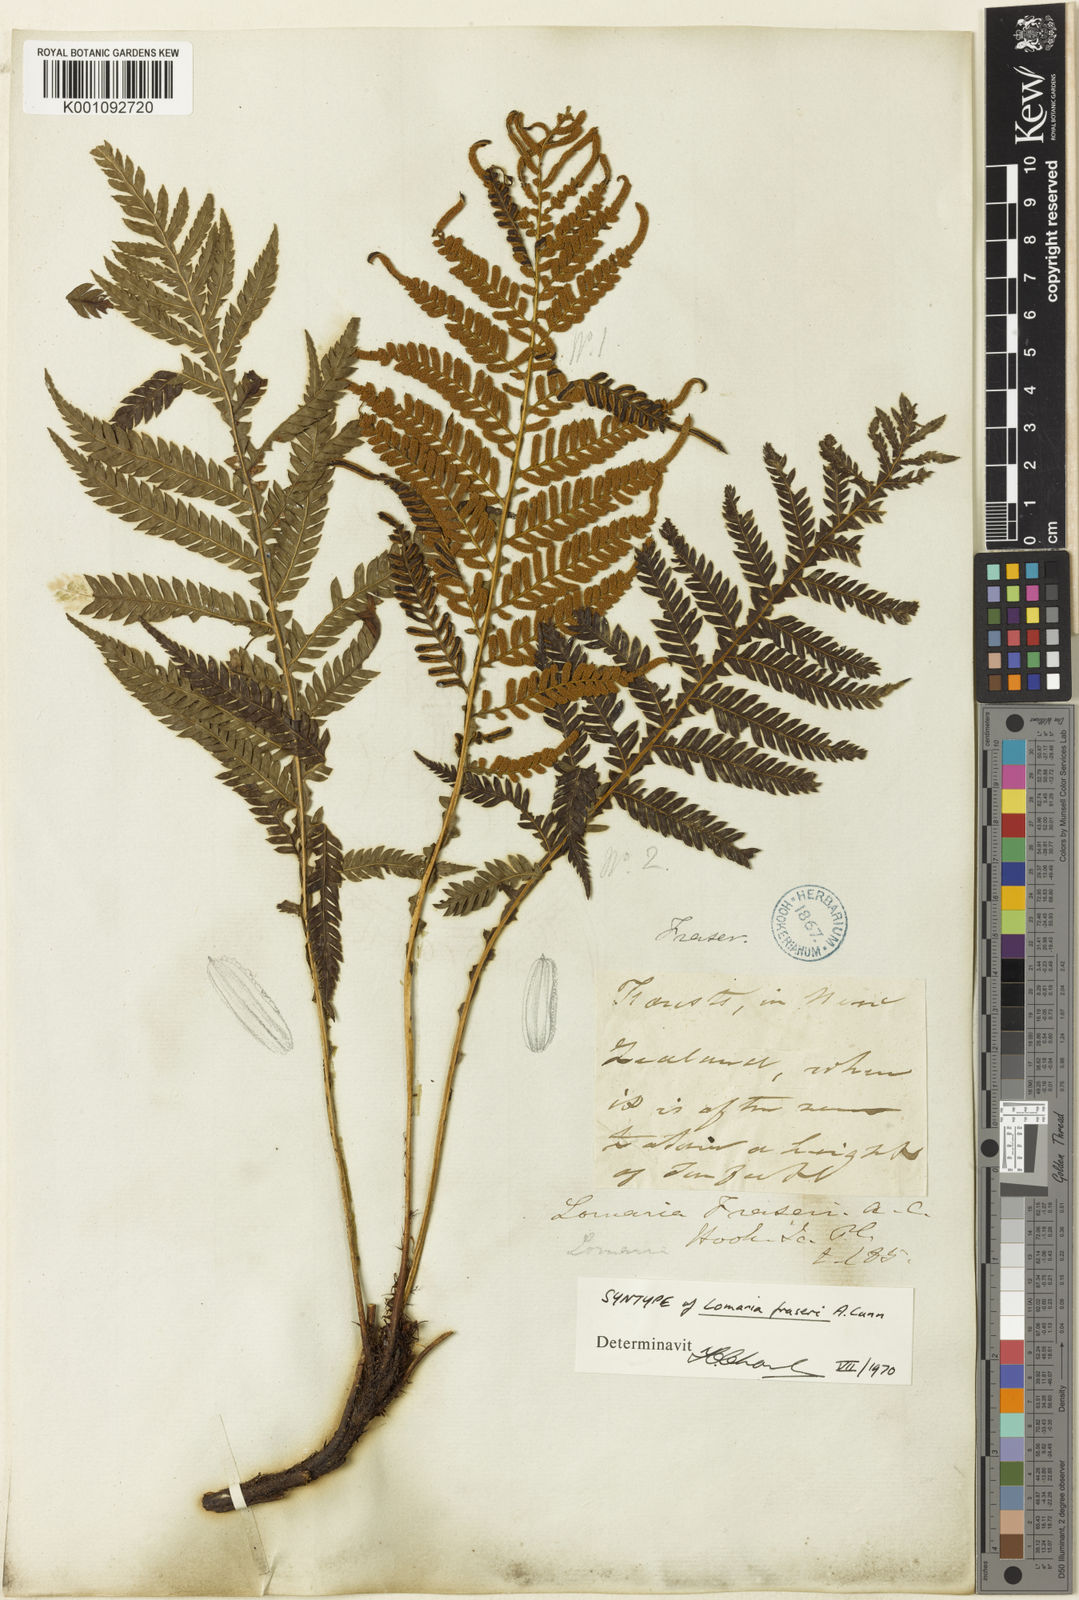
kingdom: Plantae
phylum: Tracheophyta
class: Polypodiopsida
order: Polypodiales
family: Blechnaceae
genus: Diploblechnum
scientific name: Diploblechnum fraseri
